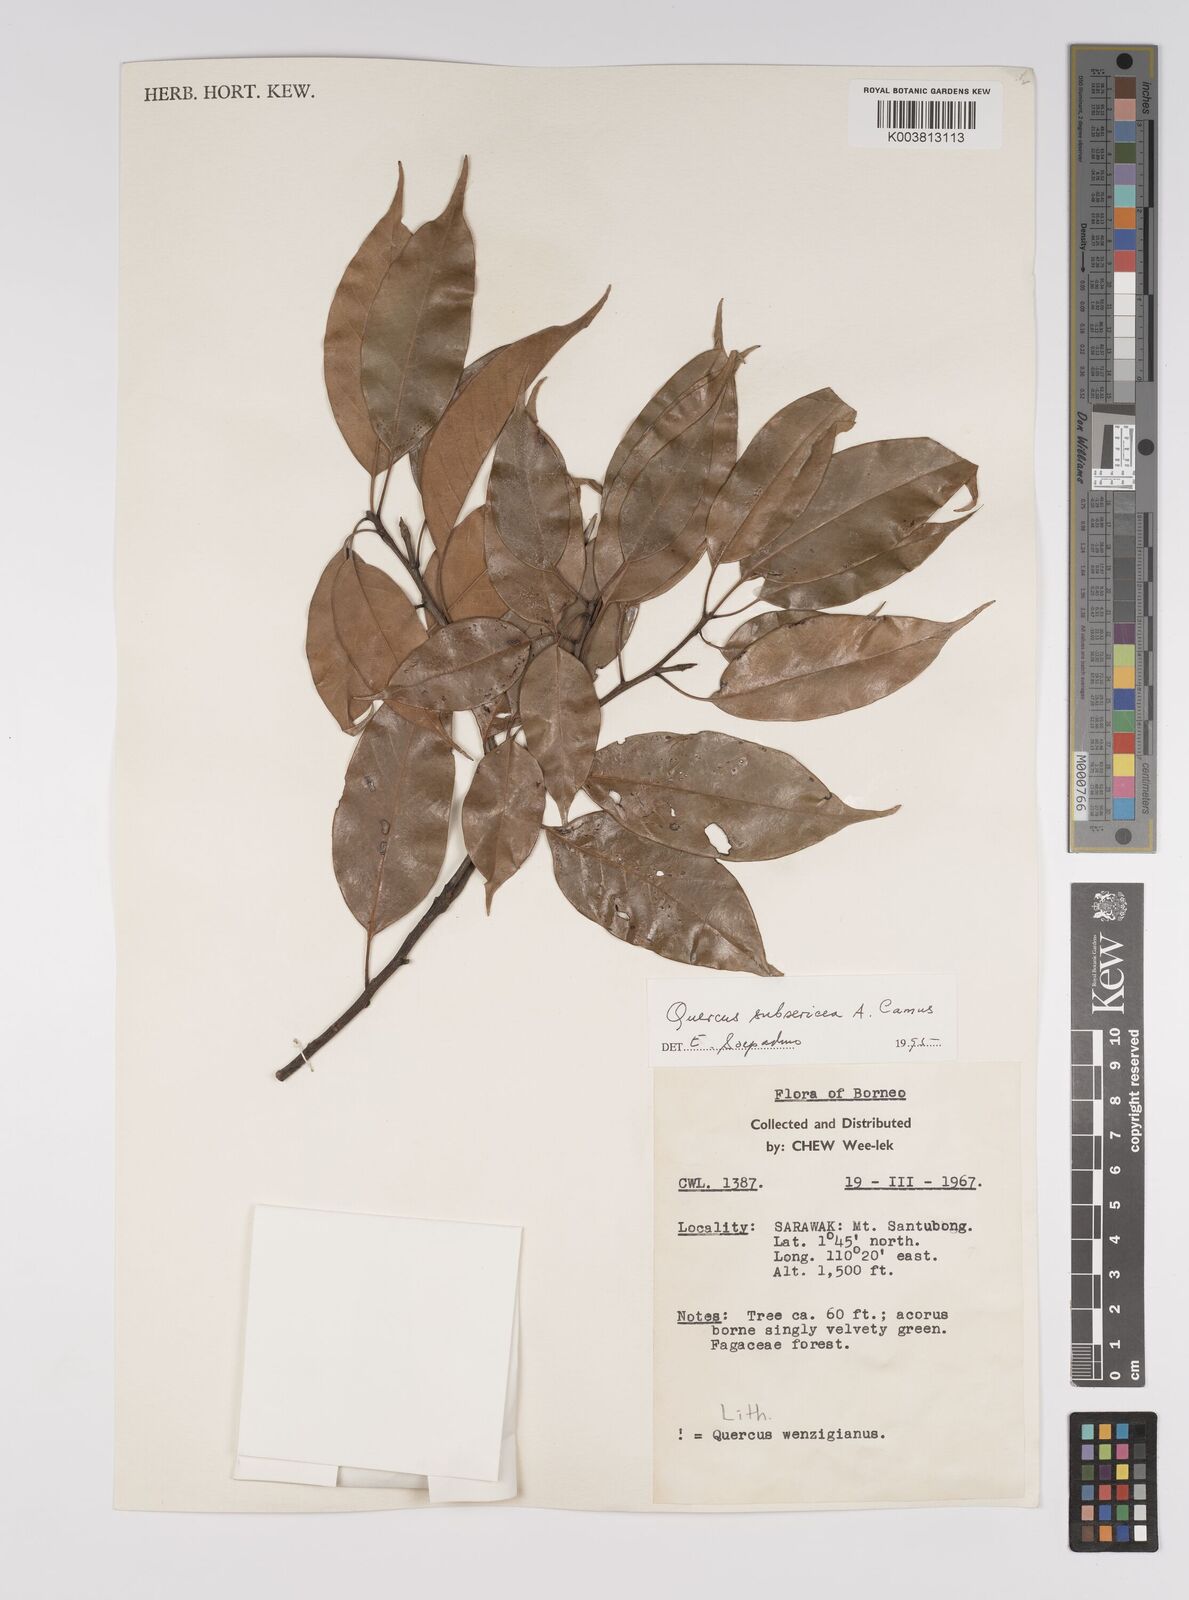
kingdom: Plantae
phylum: Tracheophyta
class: Magnoliopsida
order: Fagales
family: Fagaceae
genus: Quercus
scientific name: Quercus subsericea
